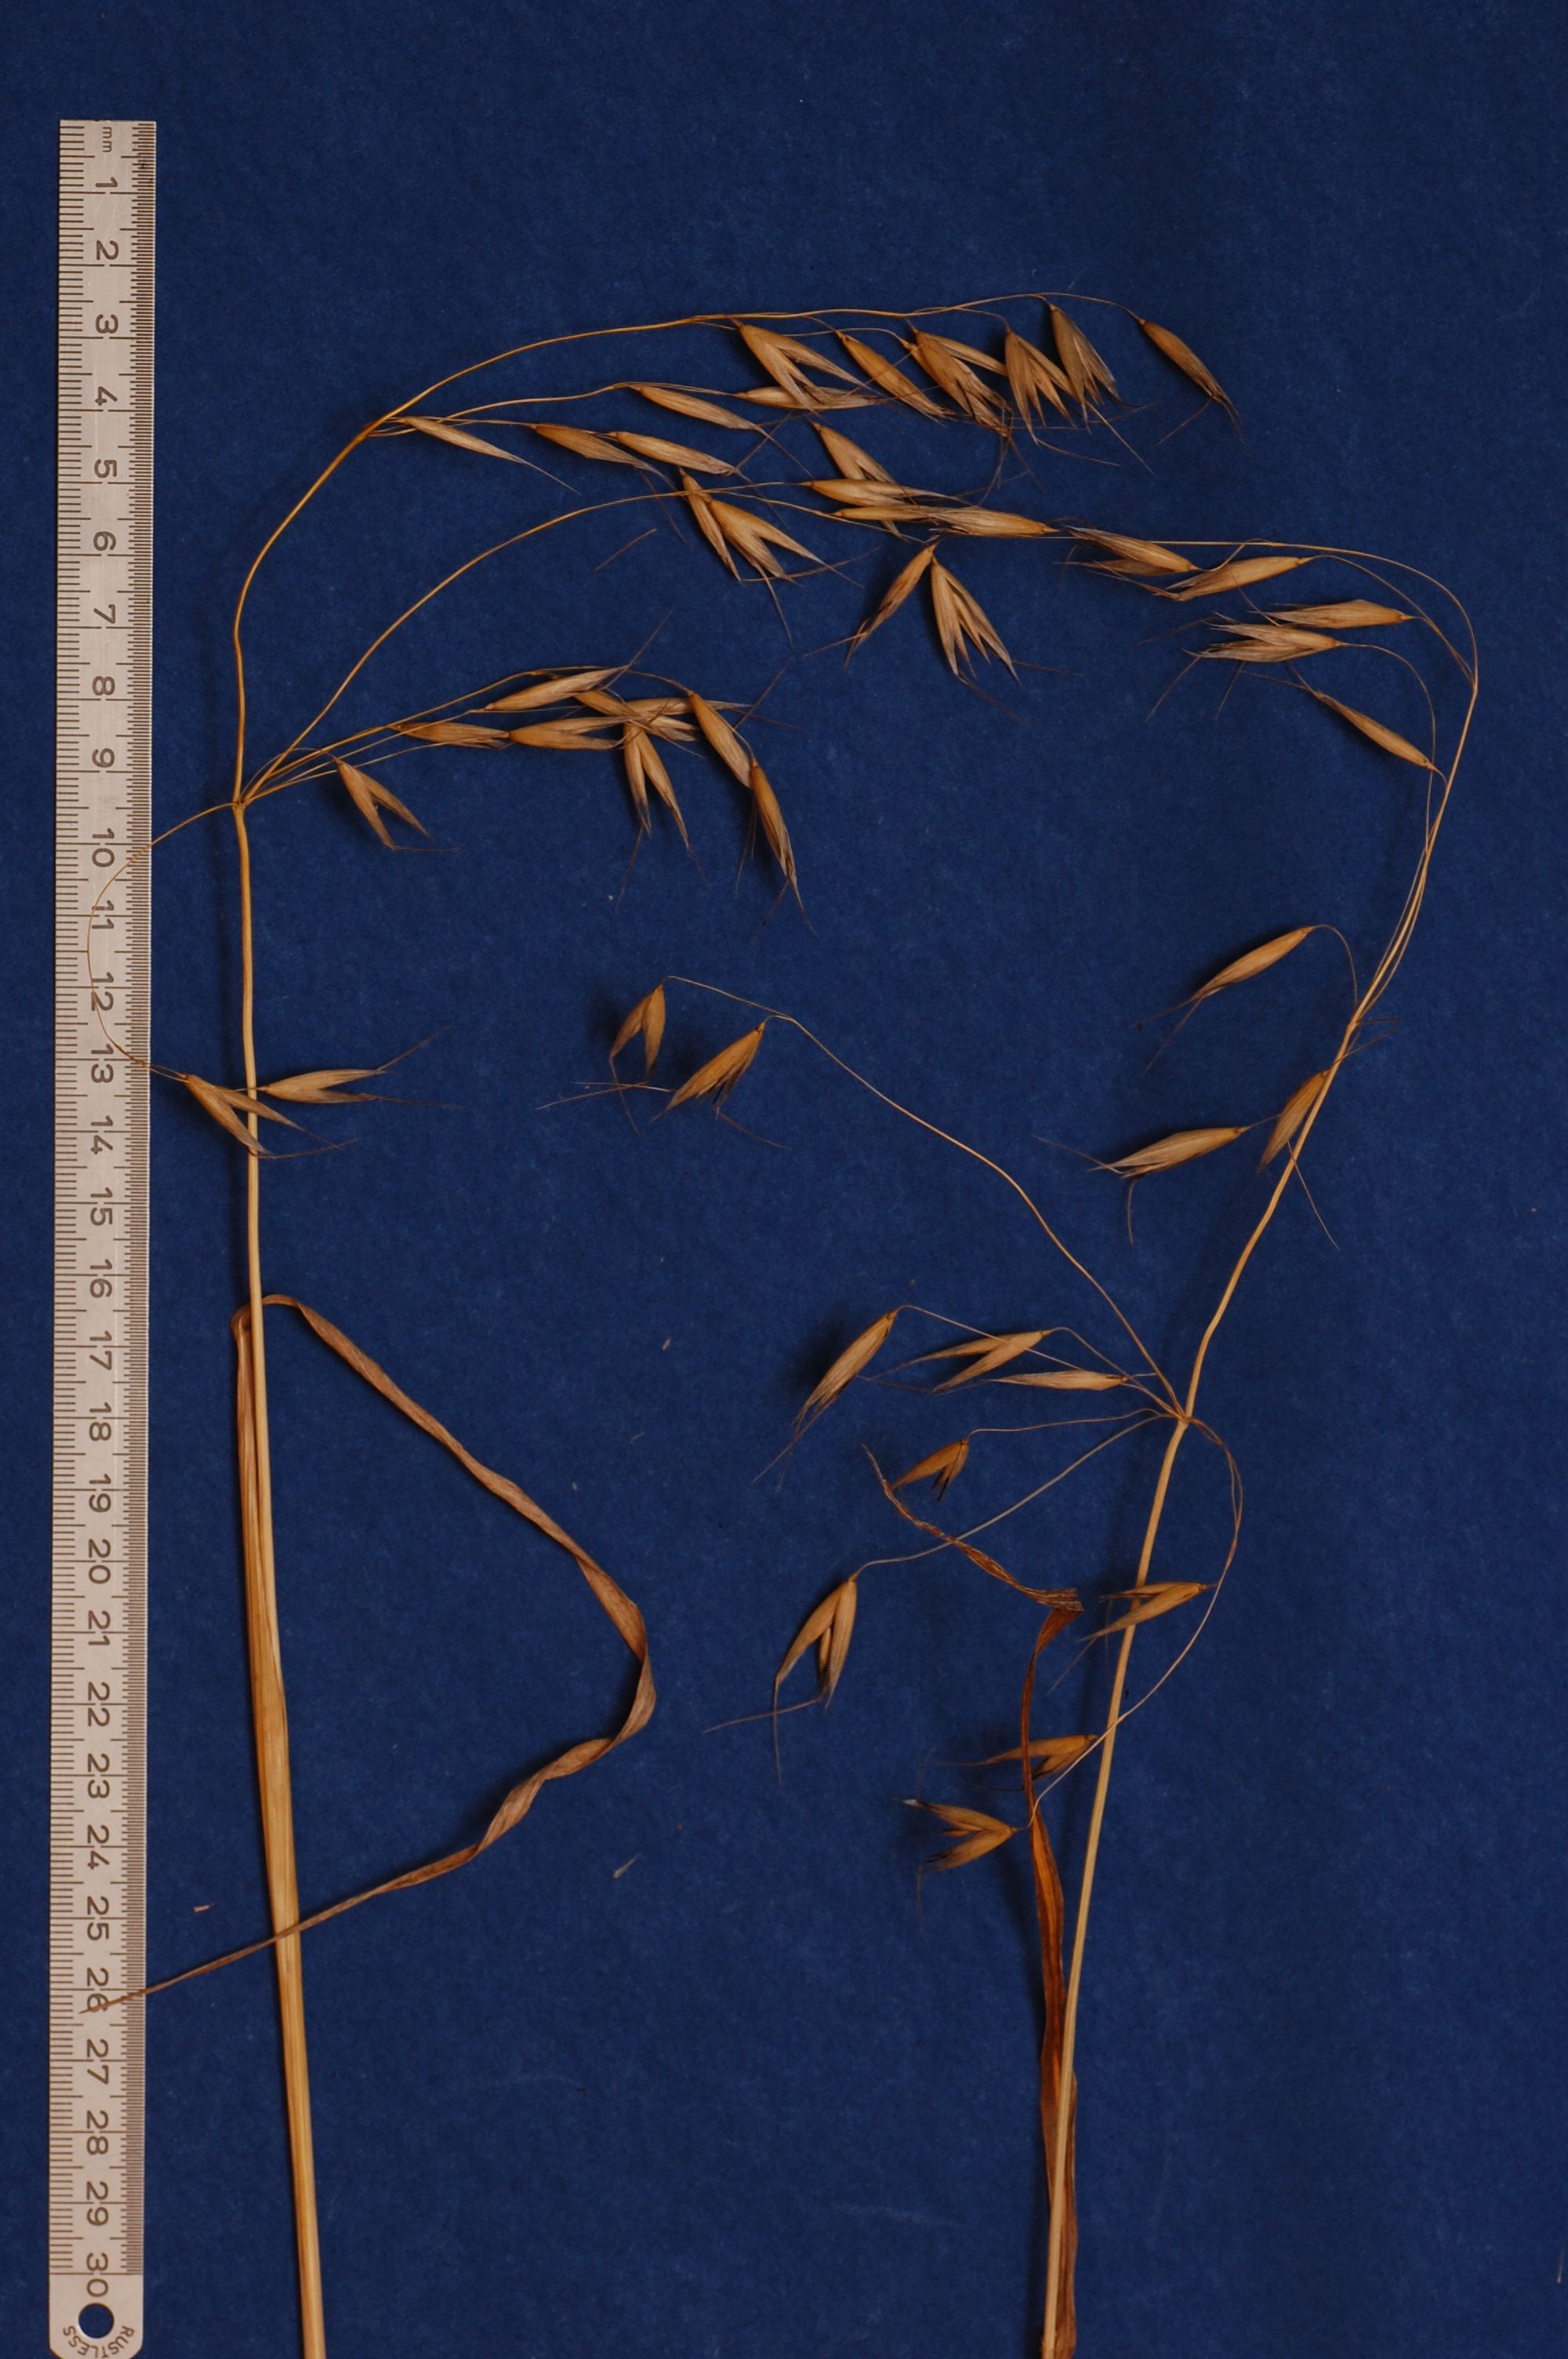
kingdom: Plantae
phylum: Tracheophyta
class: Liliopsida
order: Poales
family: Poaceae
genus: Avena
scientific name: Avena abyssinica
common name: Ethiopian oat
